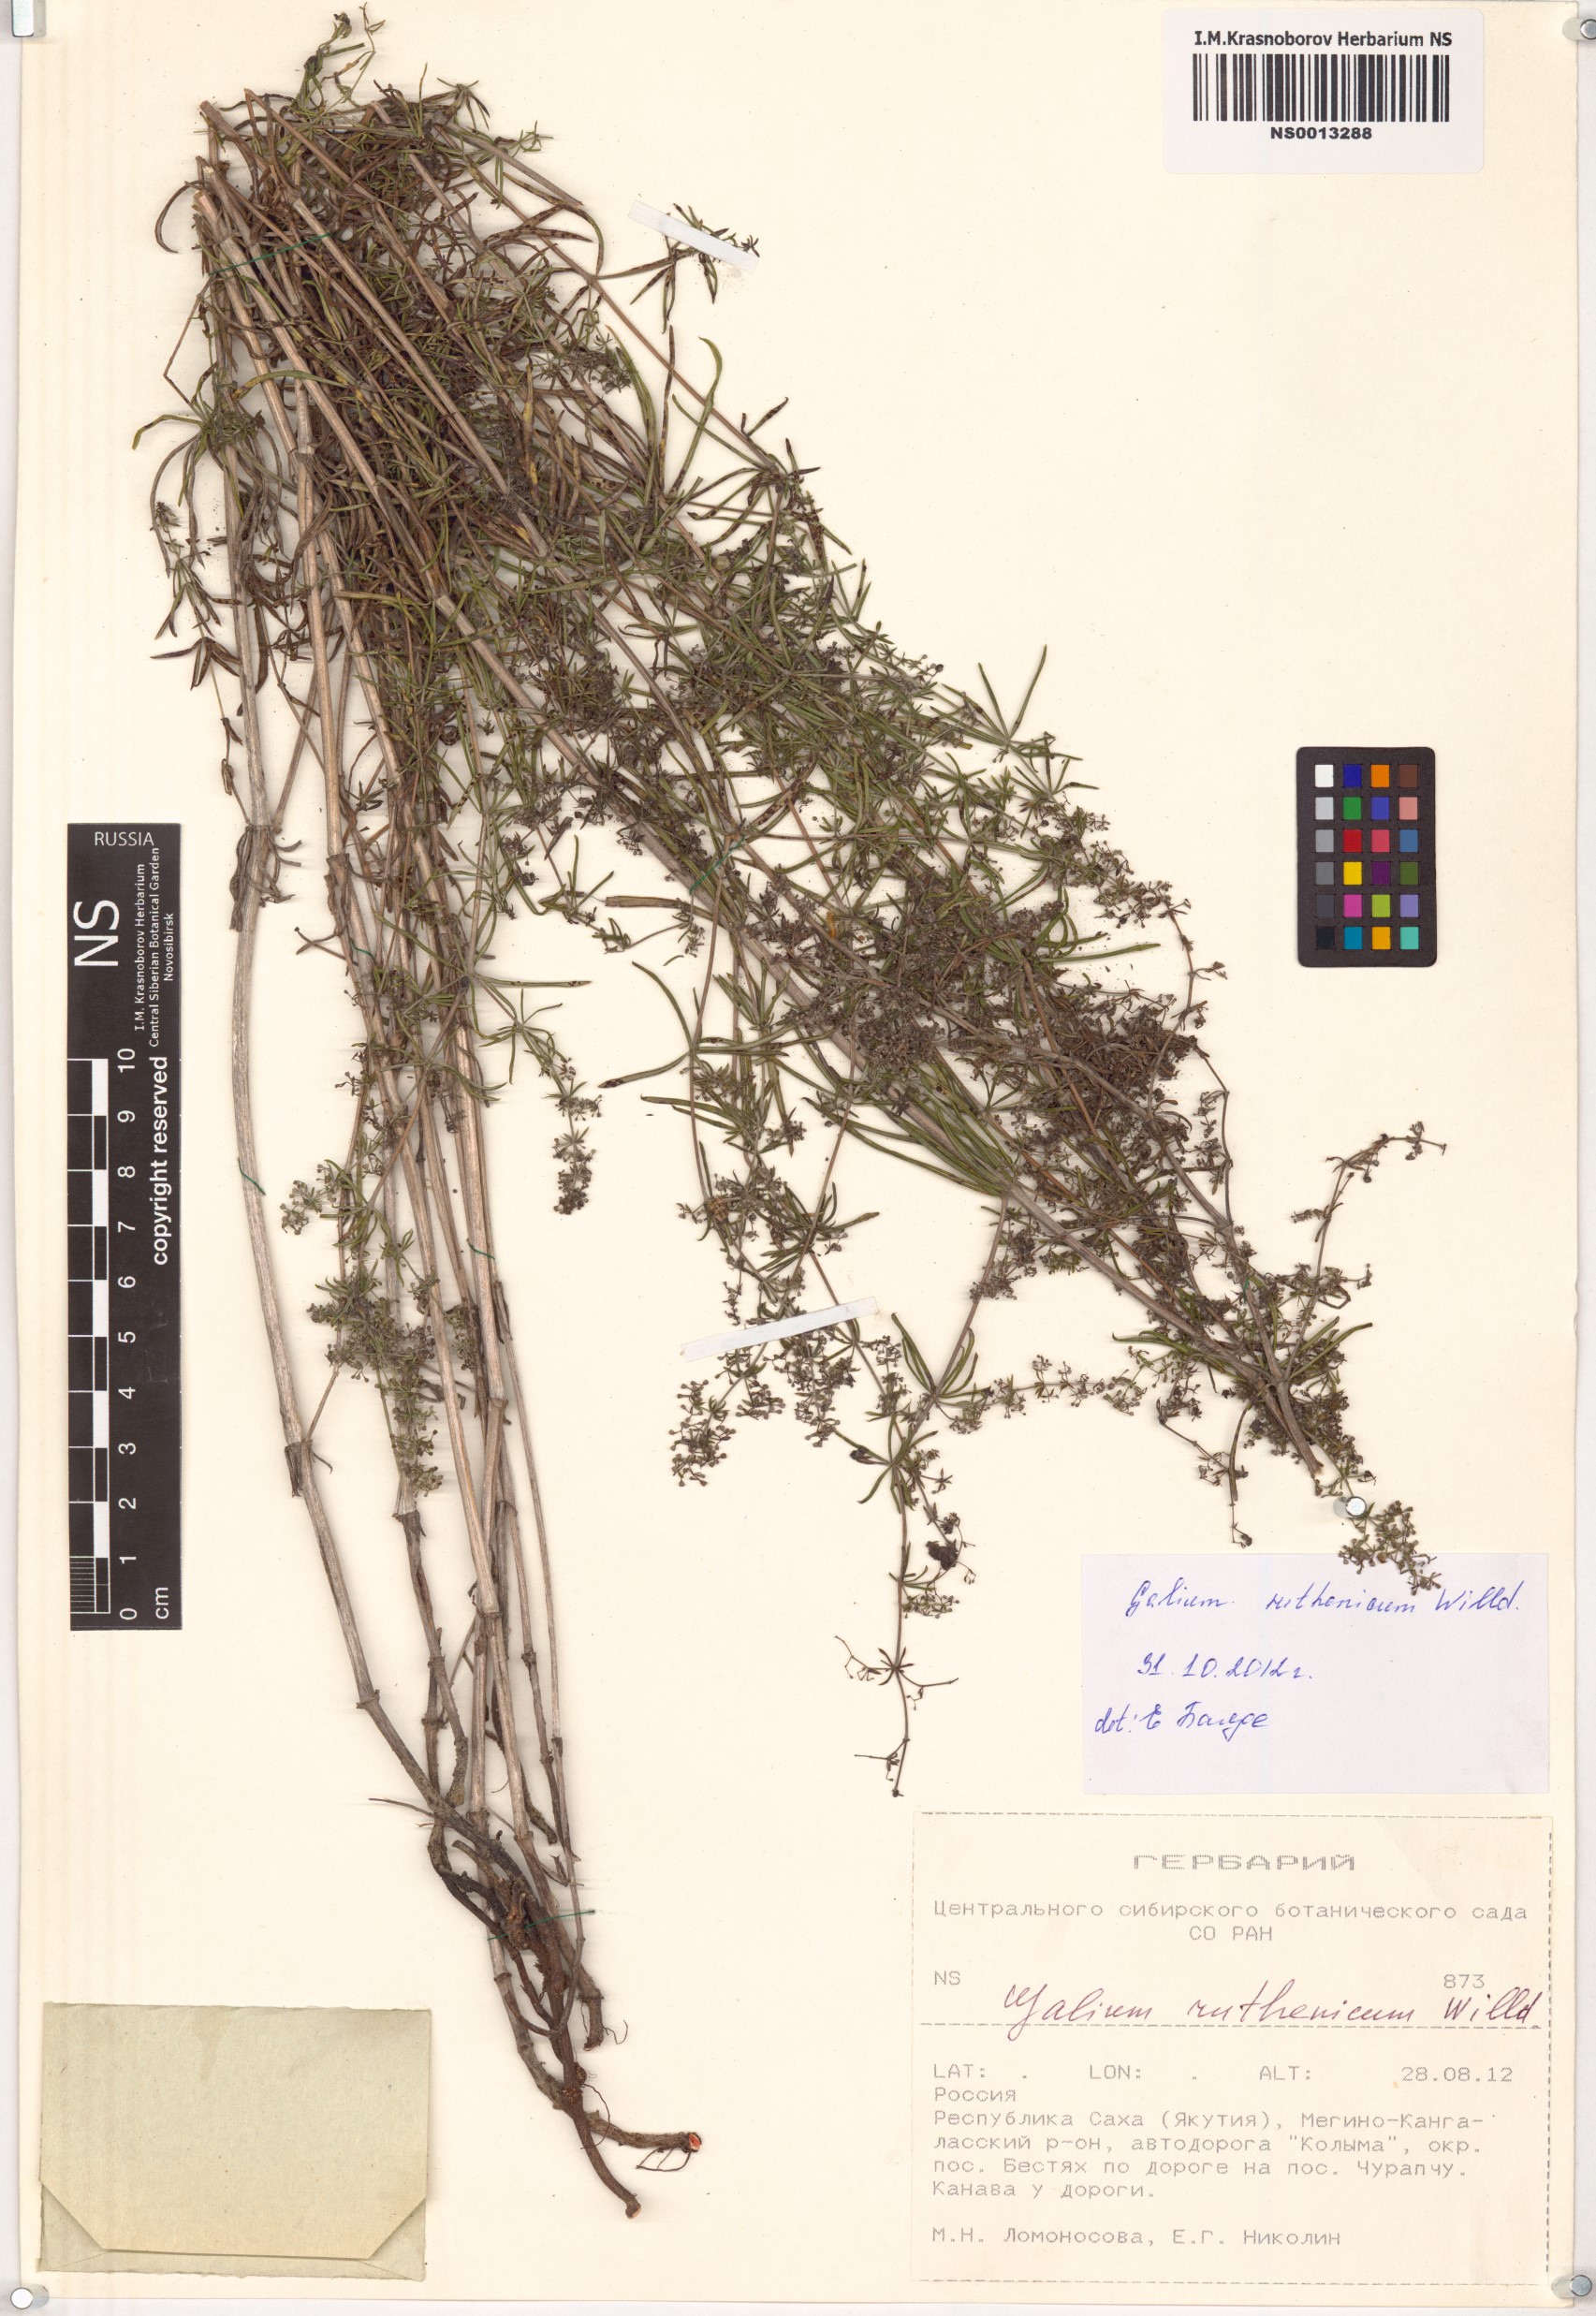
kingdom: Plantae
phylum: Tracheophyta
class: Magnoliopsida
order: Gentianales
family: Rubiaceae
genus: Galium
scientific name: Galium verum
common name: Lady's bedstraw
